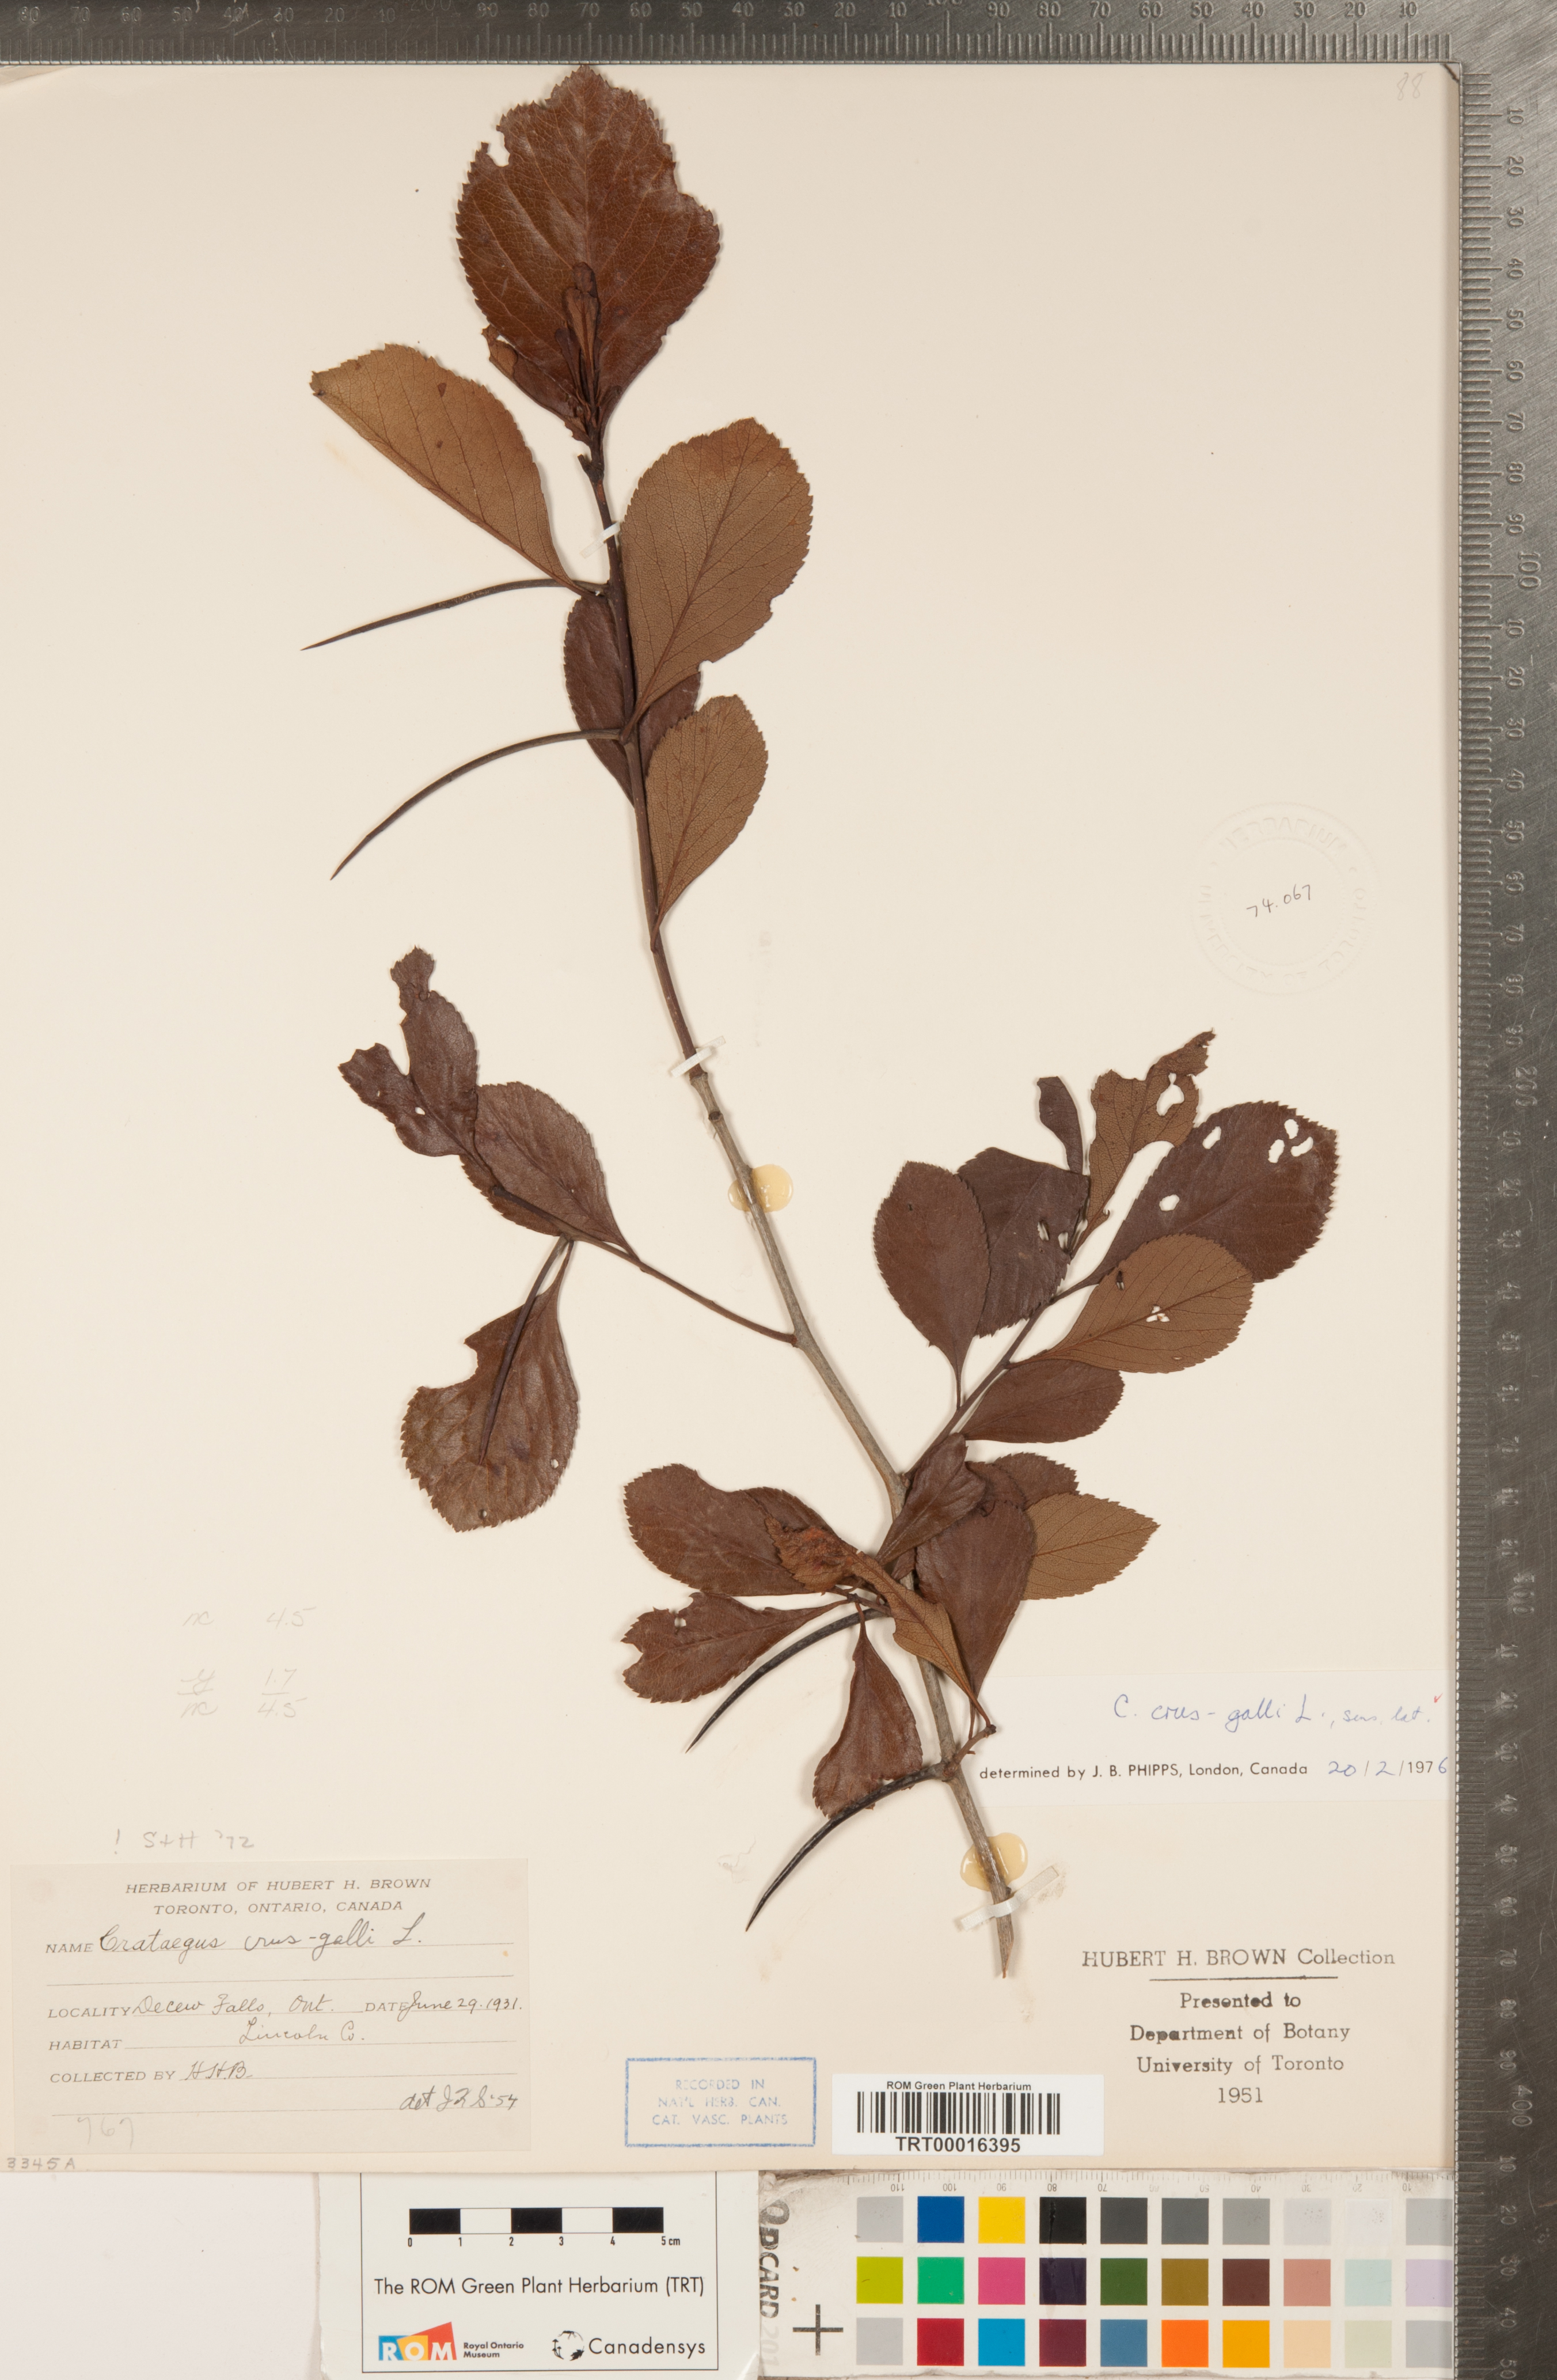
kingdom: Plantae
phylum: Tracheophyta
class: Magnoliopsida
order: Rosales
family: Rosaceae
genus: Crataegus
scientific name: Crataegus crus-galli
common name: Cockspurthorn
